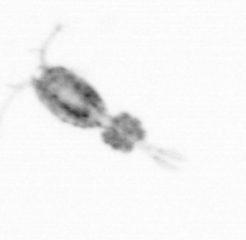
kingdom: Animalia
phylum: Arthropoda
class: Copepoda
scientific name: Copepoda
